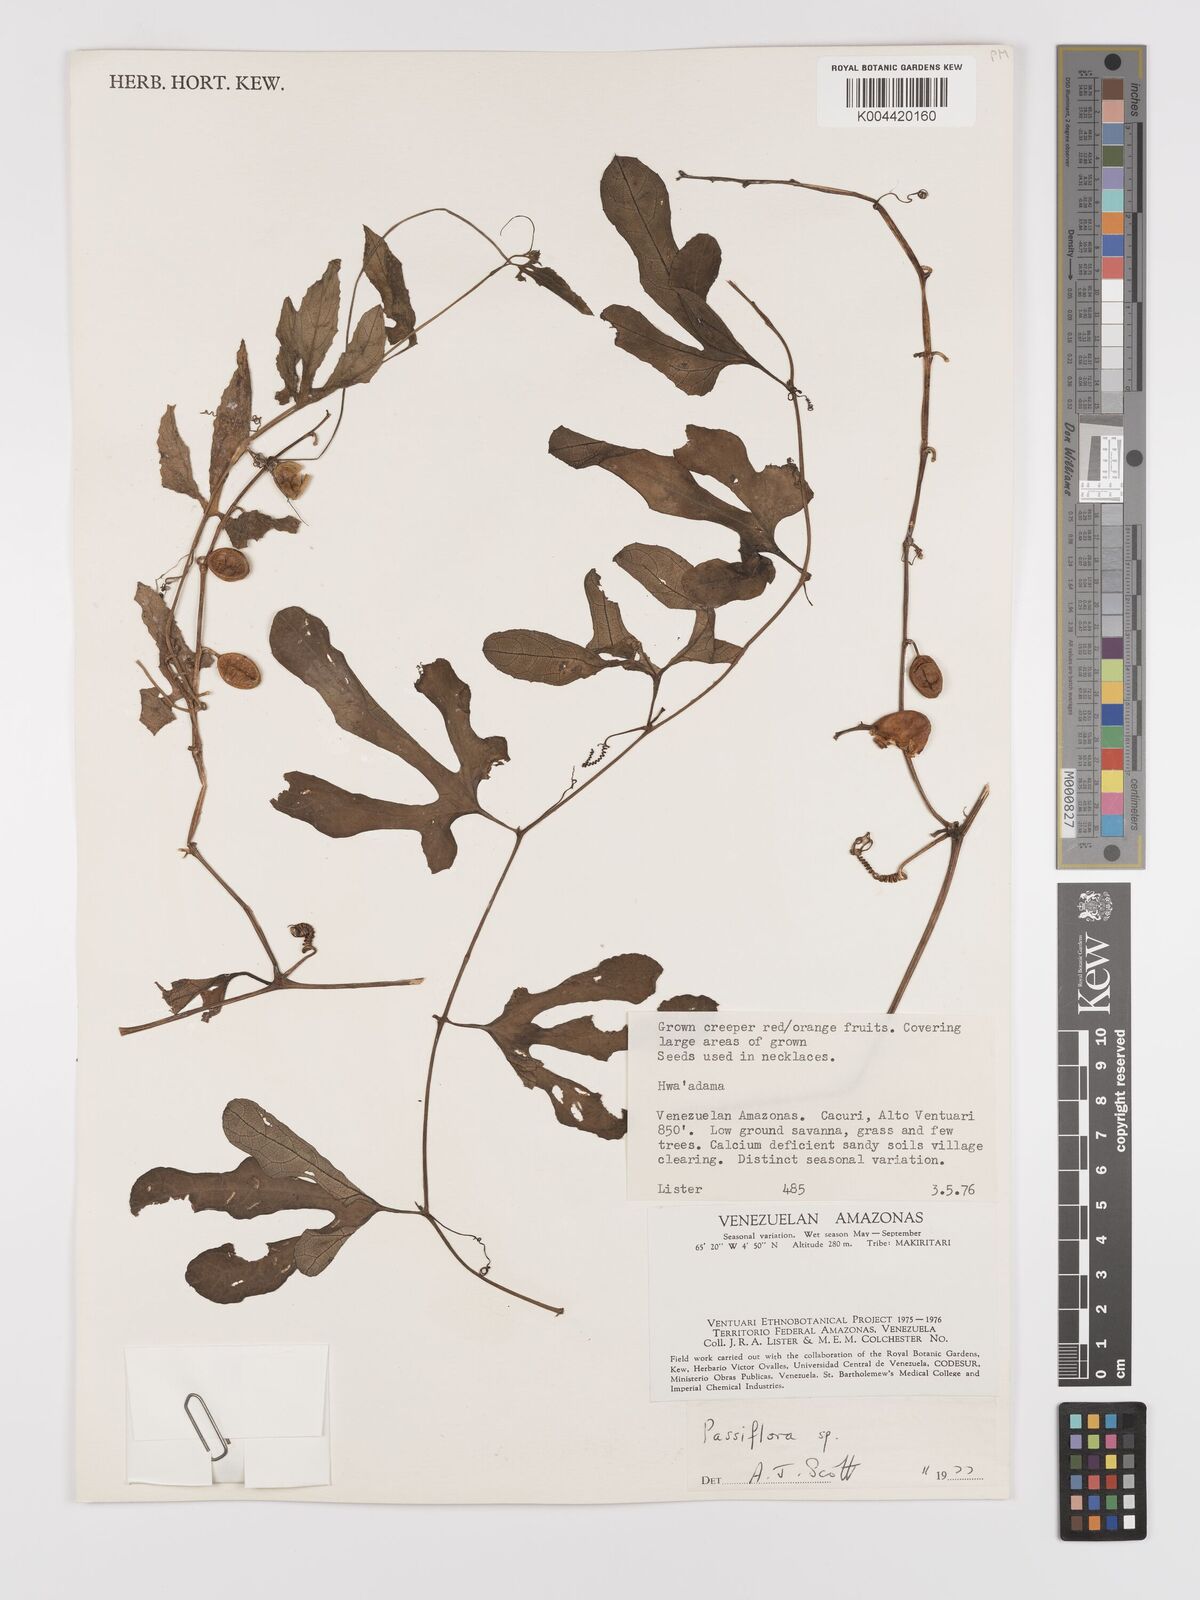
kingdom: Plantae
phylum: Tracheophyta
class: Magnoliopsida
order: Cucurbitales
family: Cucurbitaceae
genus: Cayaponia
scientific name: Cayaponia racemosa
